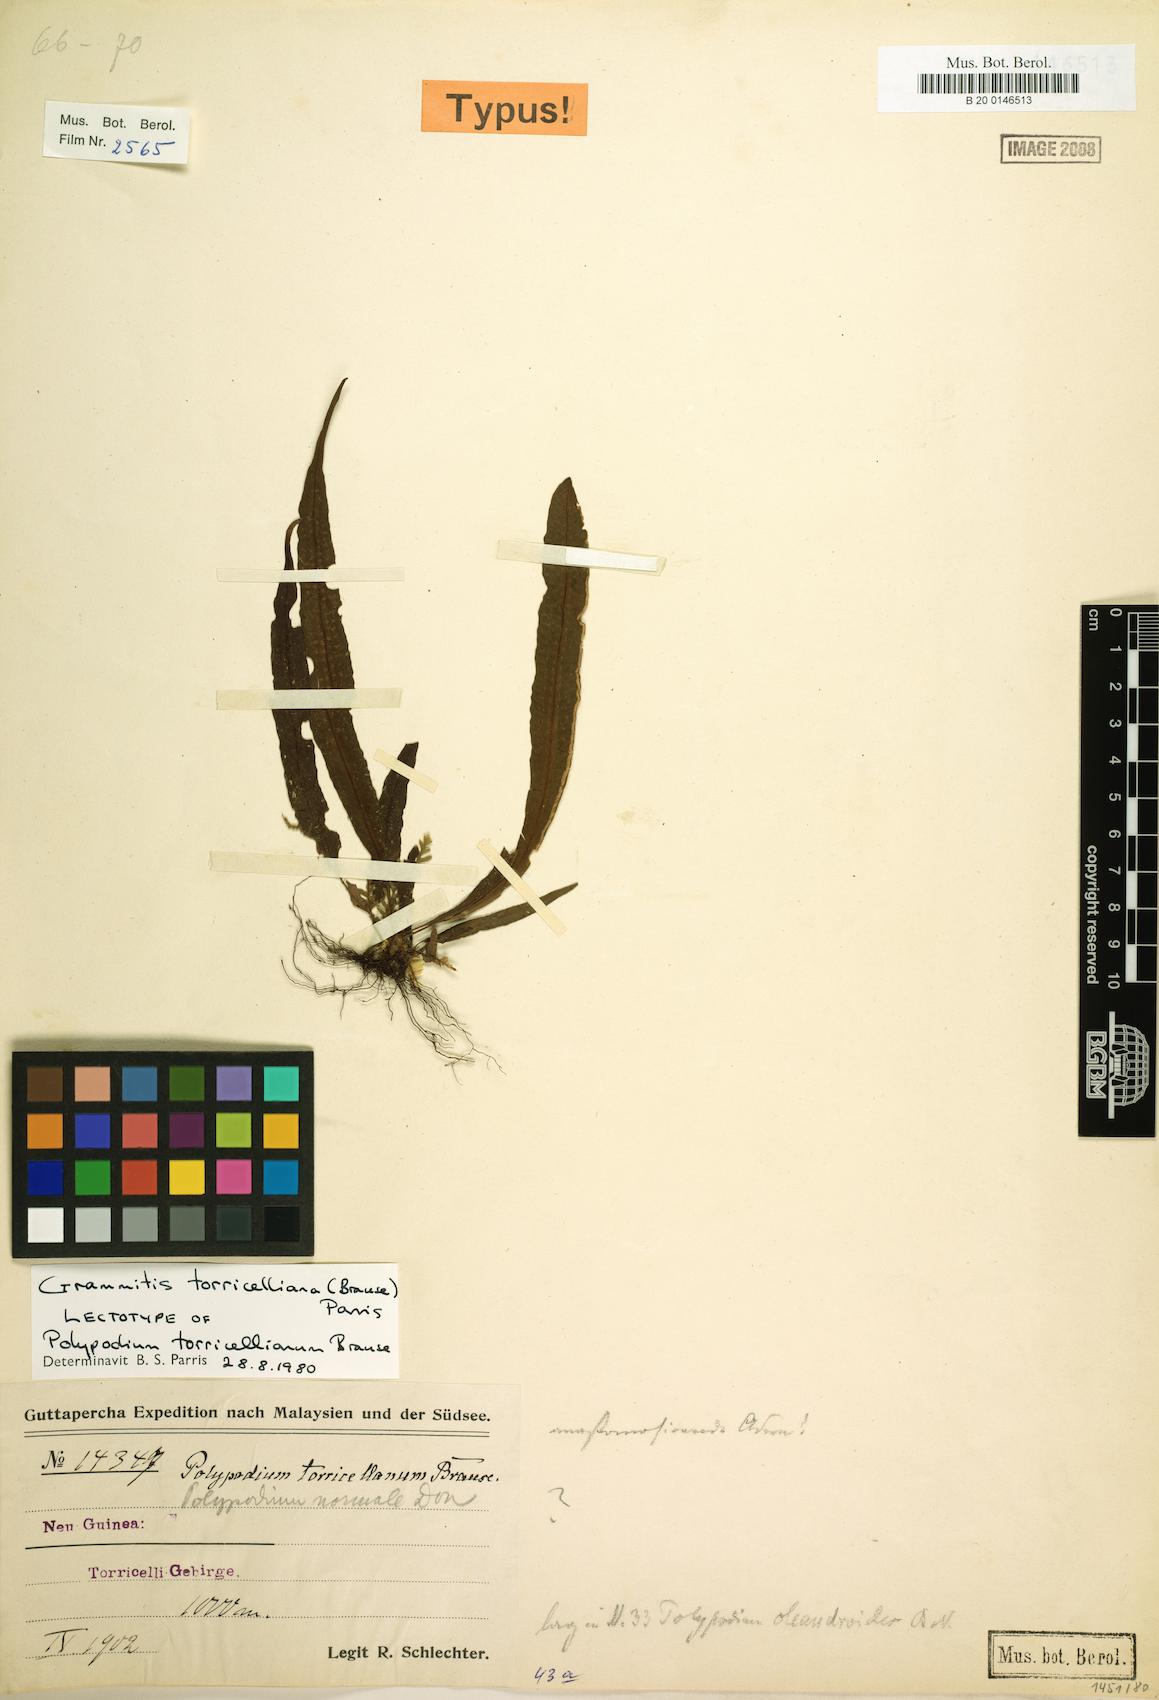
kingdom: Plantae
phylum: Tracheophyta
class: Polypodiopsida
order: Polypodiales
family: Polypodiaceae
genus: Oreogrammitis
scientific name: Oreogrammitis torricelliana
